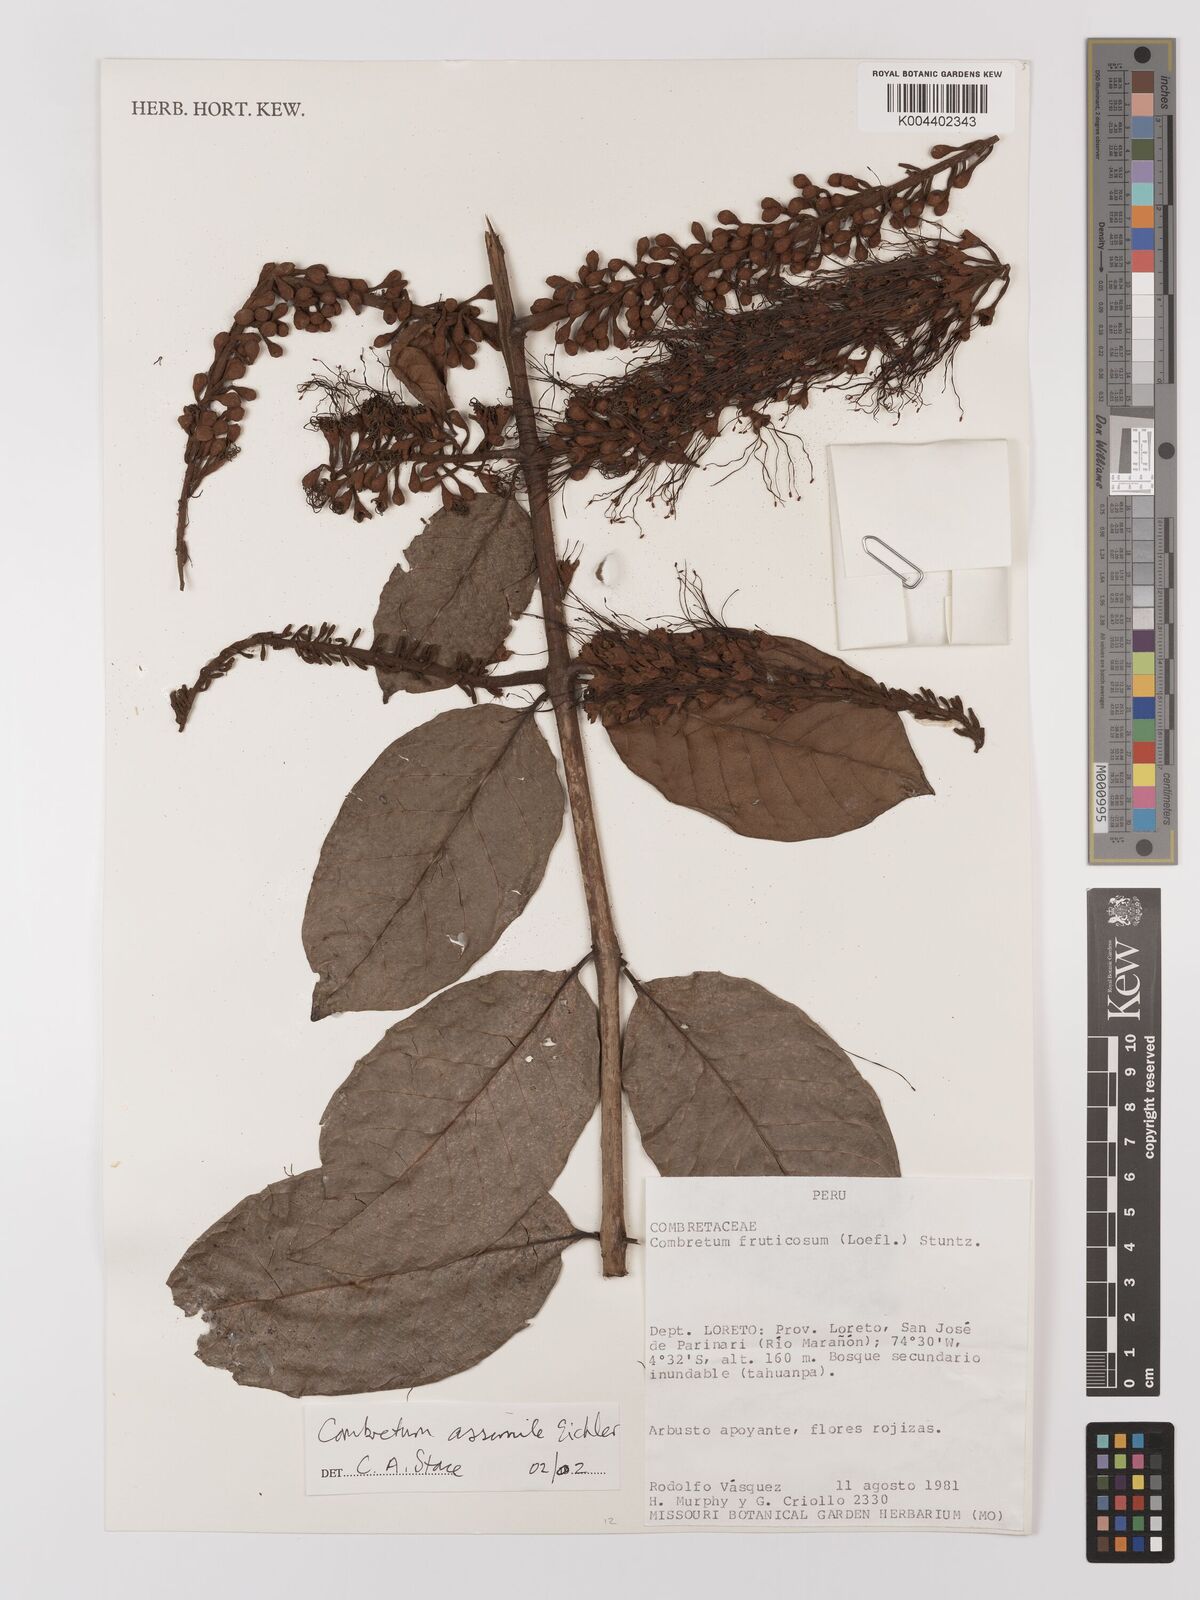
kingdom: Plantae
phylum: Tracheophyta
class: Magnoliopsida
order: Myrtales
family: Combretaceae
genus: Combretum
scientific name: Combretum assimile
